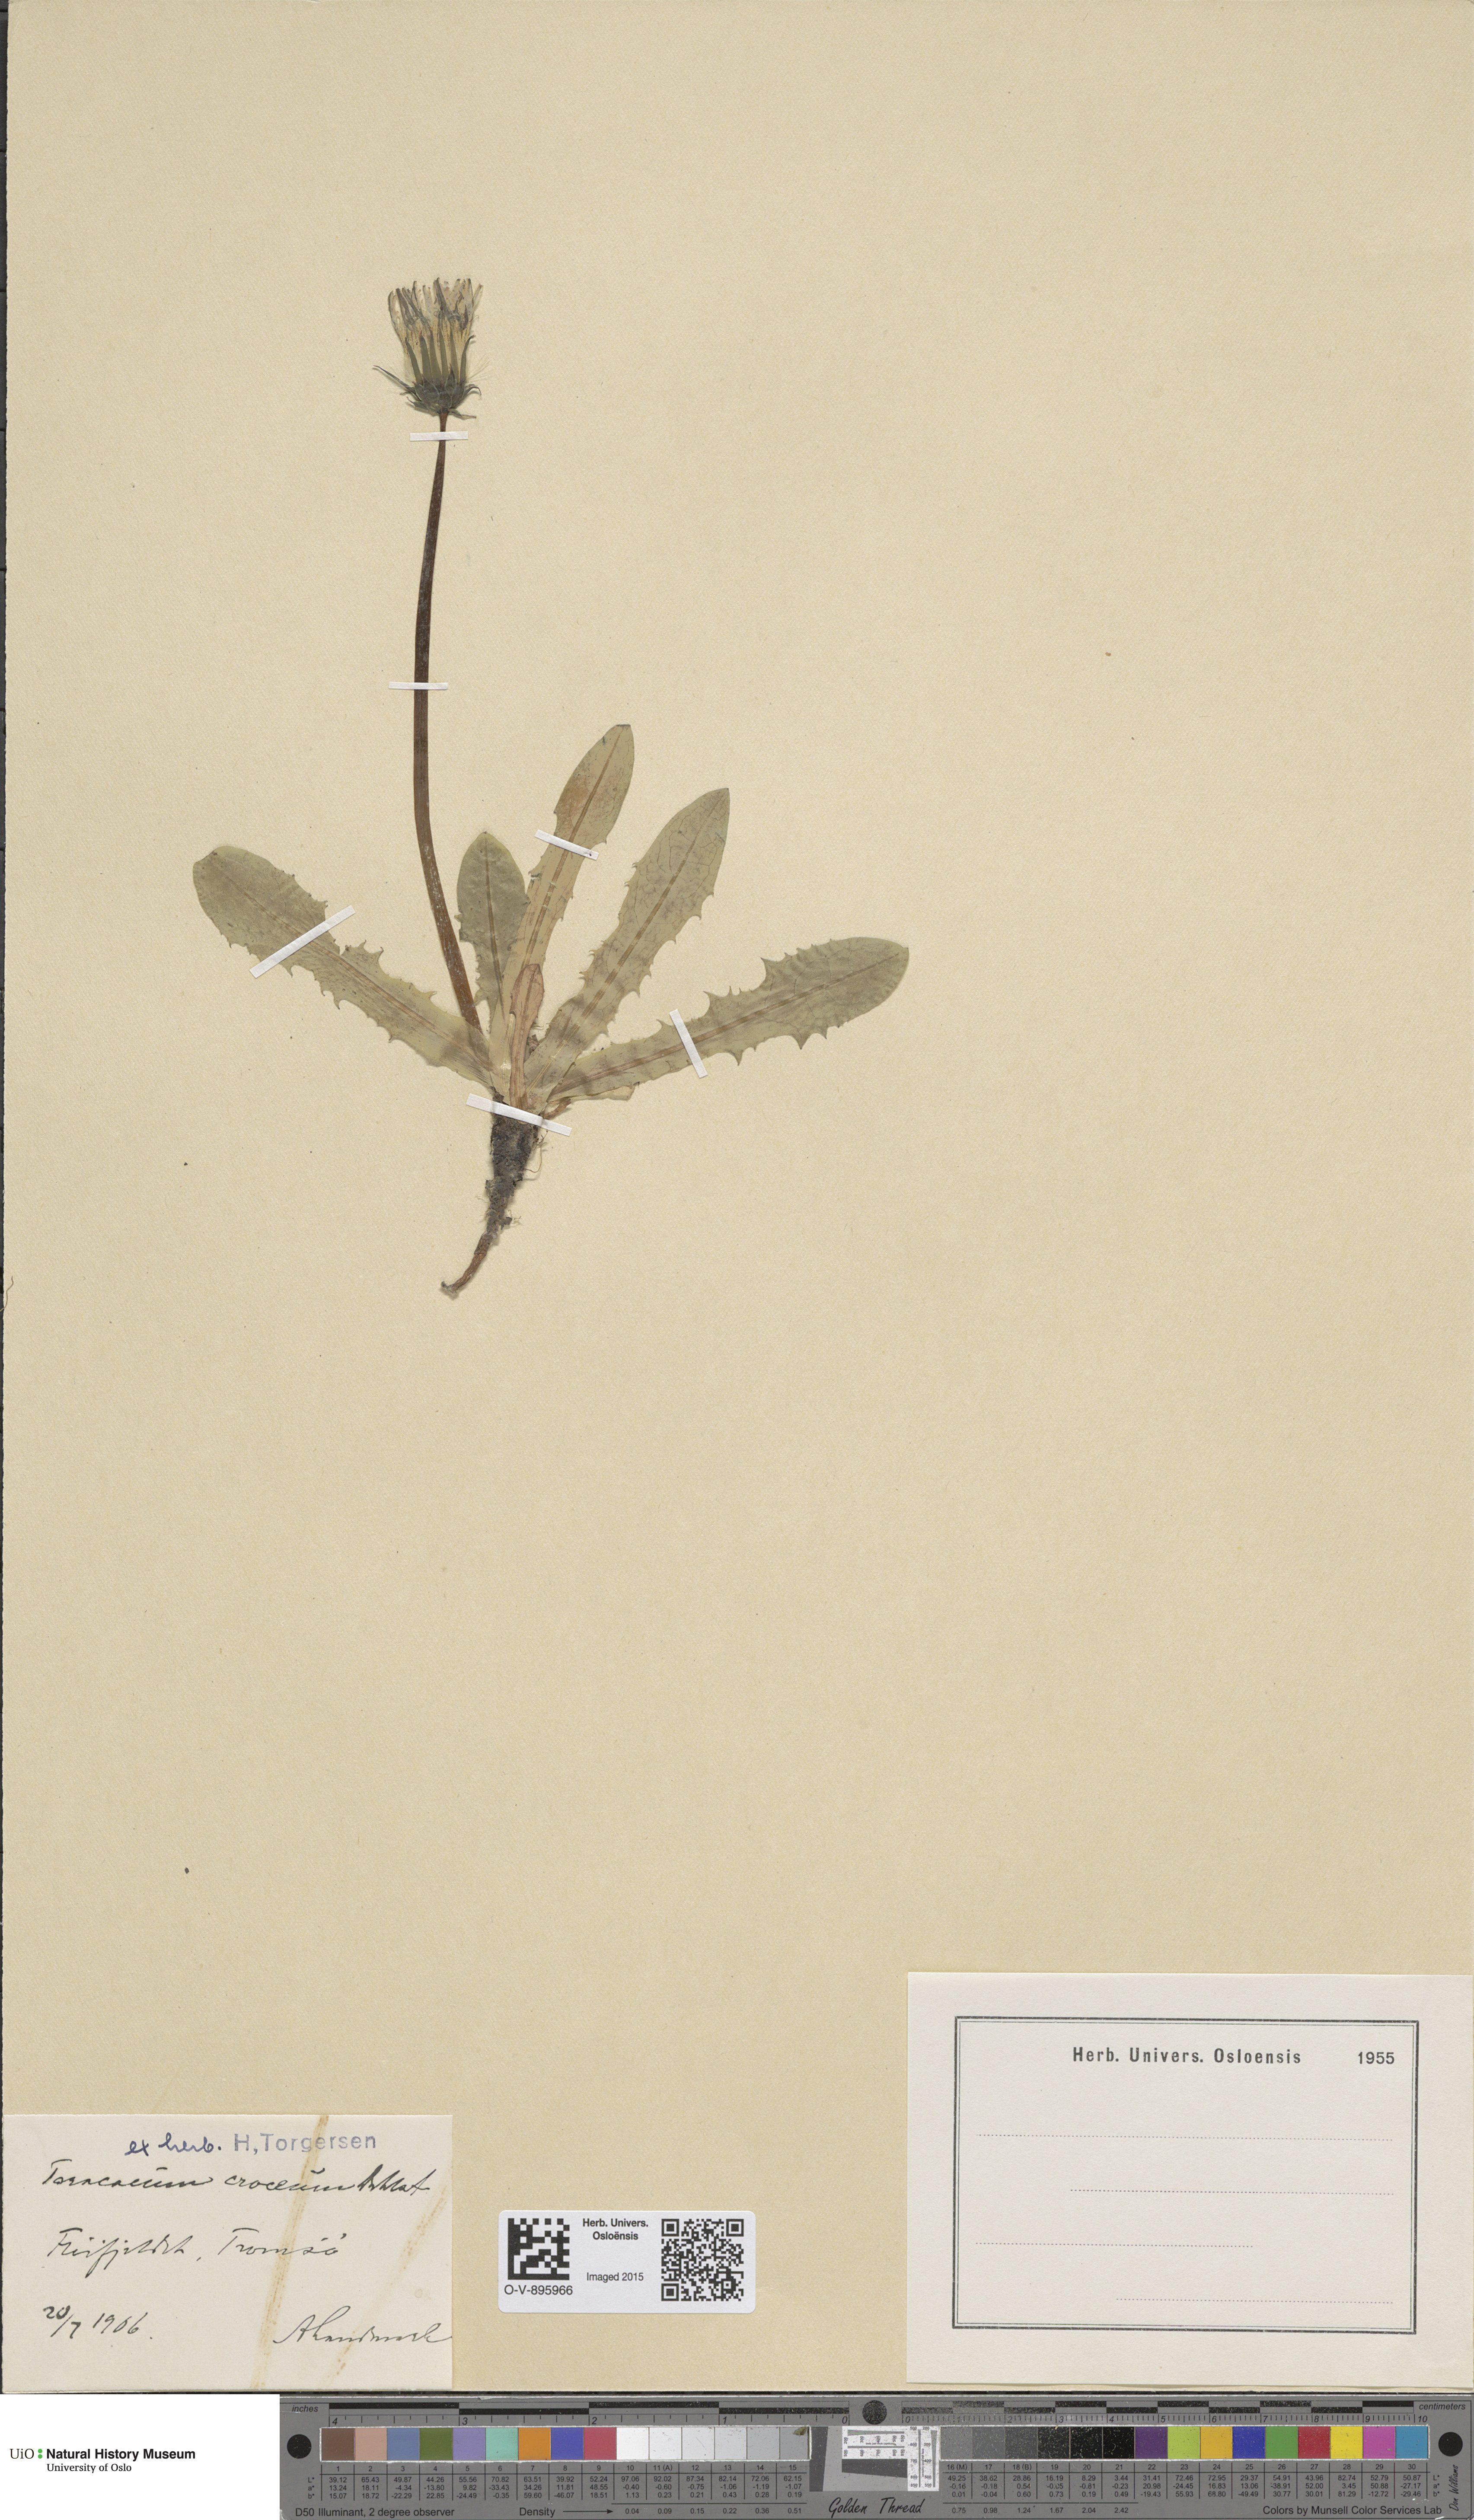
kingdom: Plantae
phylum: Tracheophyta
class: Magnoliopsida
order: Asterales
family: Asteraceae
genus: Taraxacum
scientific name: Taraxacum croceum
